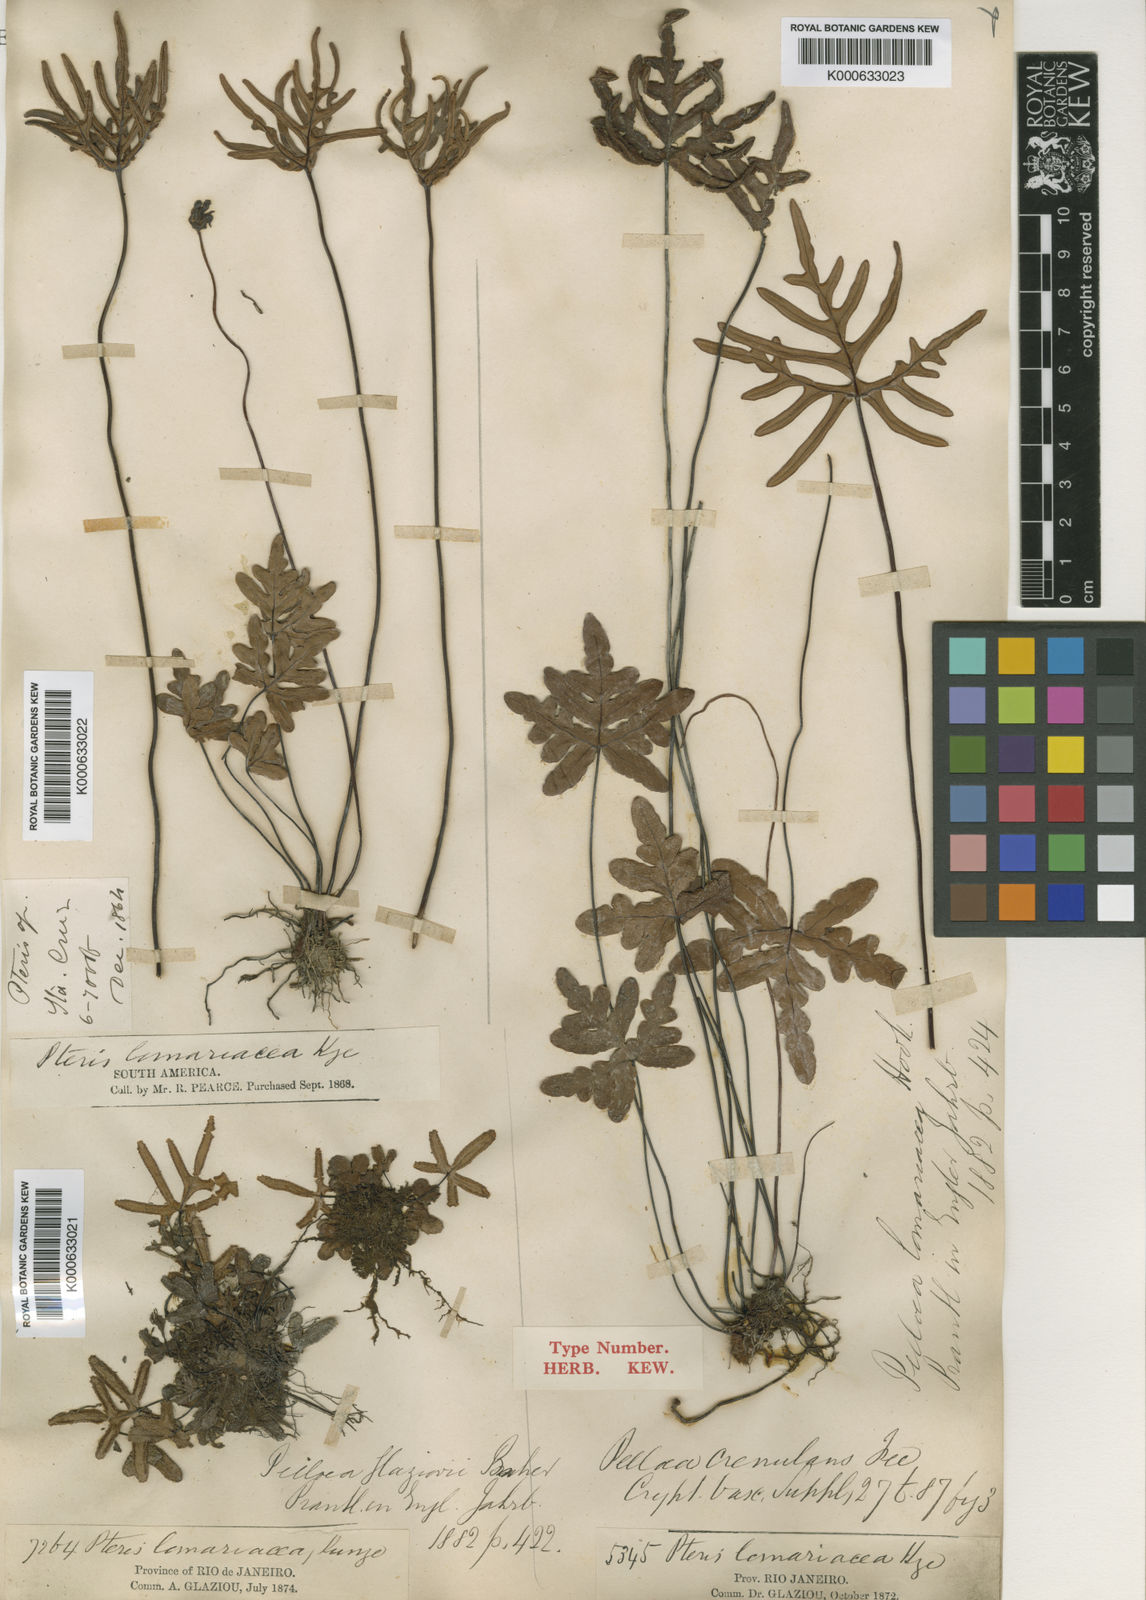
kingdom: Plantae
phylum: Tracheophyta
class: Polypodiopsida
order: Polypodiales
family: Pteridaceae
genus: Doryopteris
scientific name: Doryopteris
